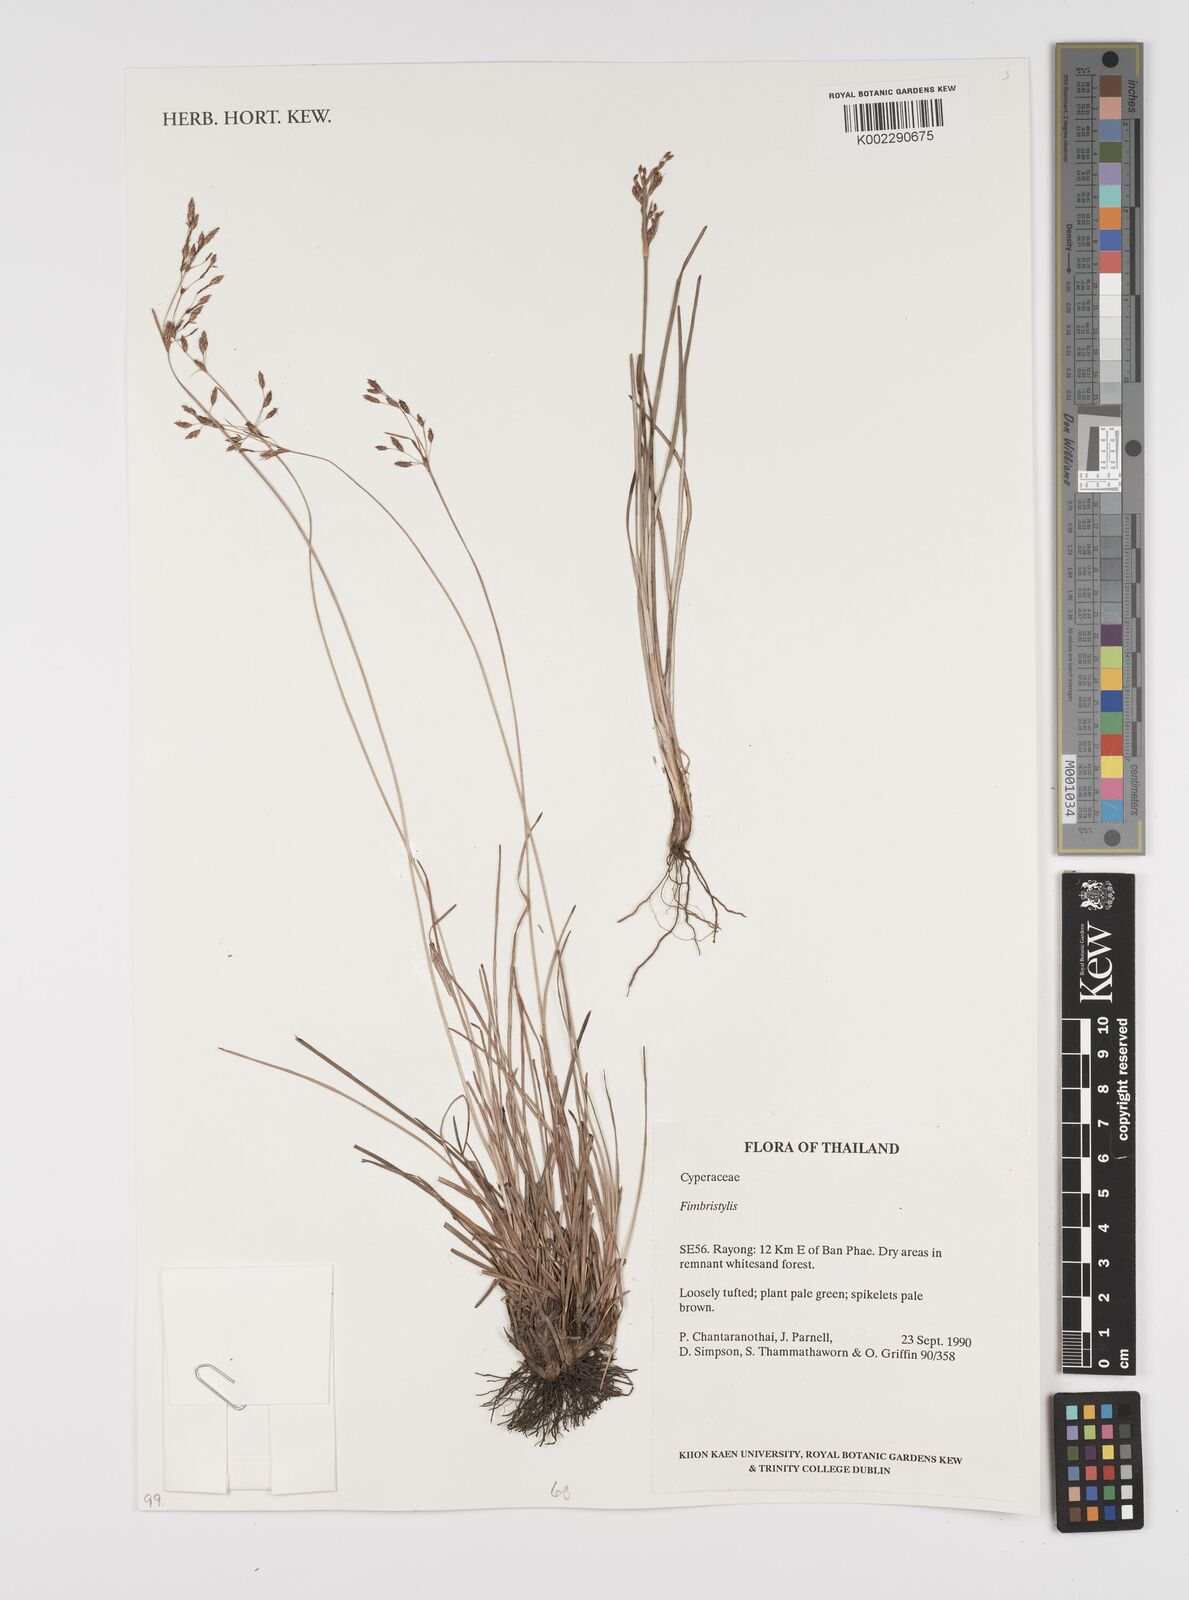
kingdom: Plantae
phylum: Tracheophyta
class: Liliopsida
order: Poales
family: Cyperaceae
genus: Fimbristylis
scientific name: Fimbristylis
